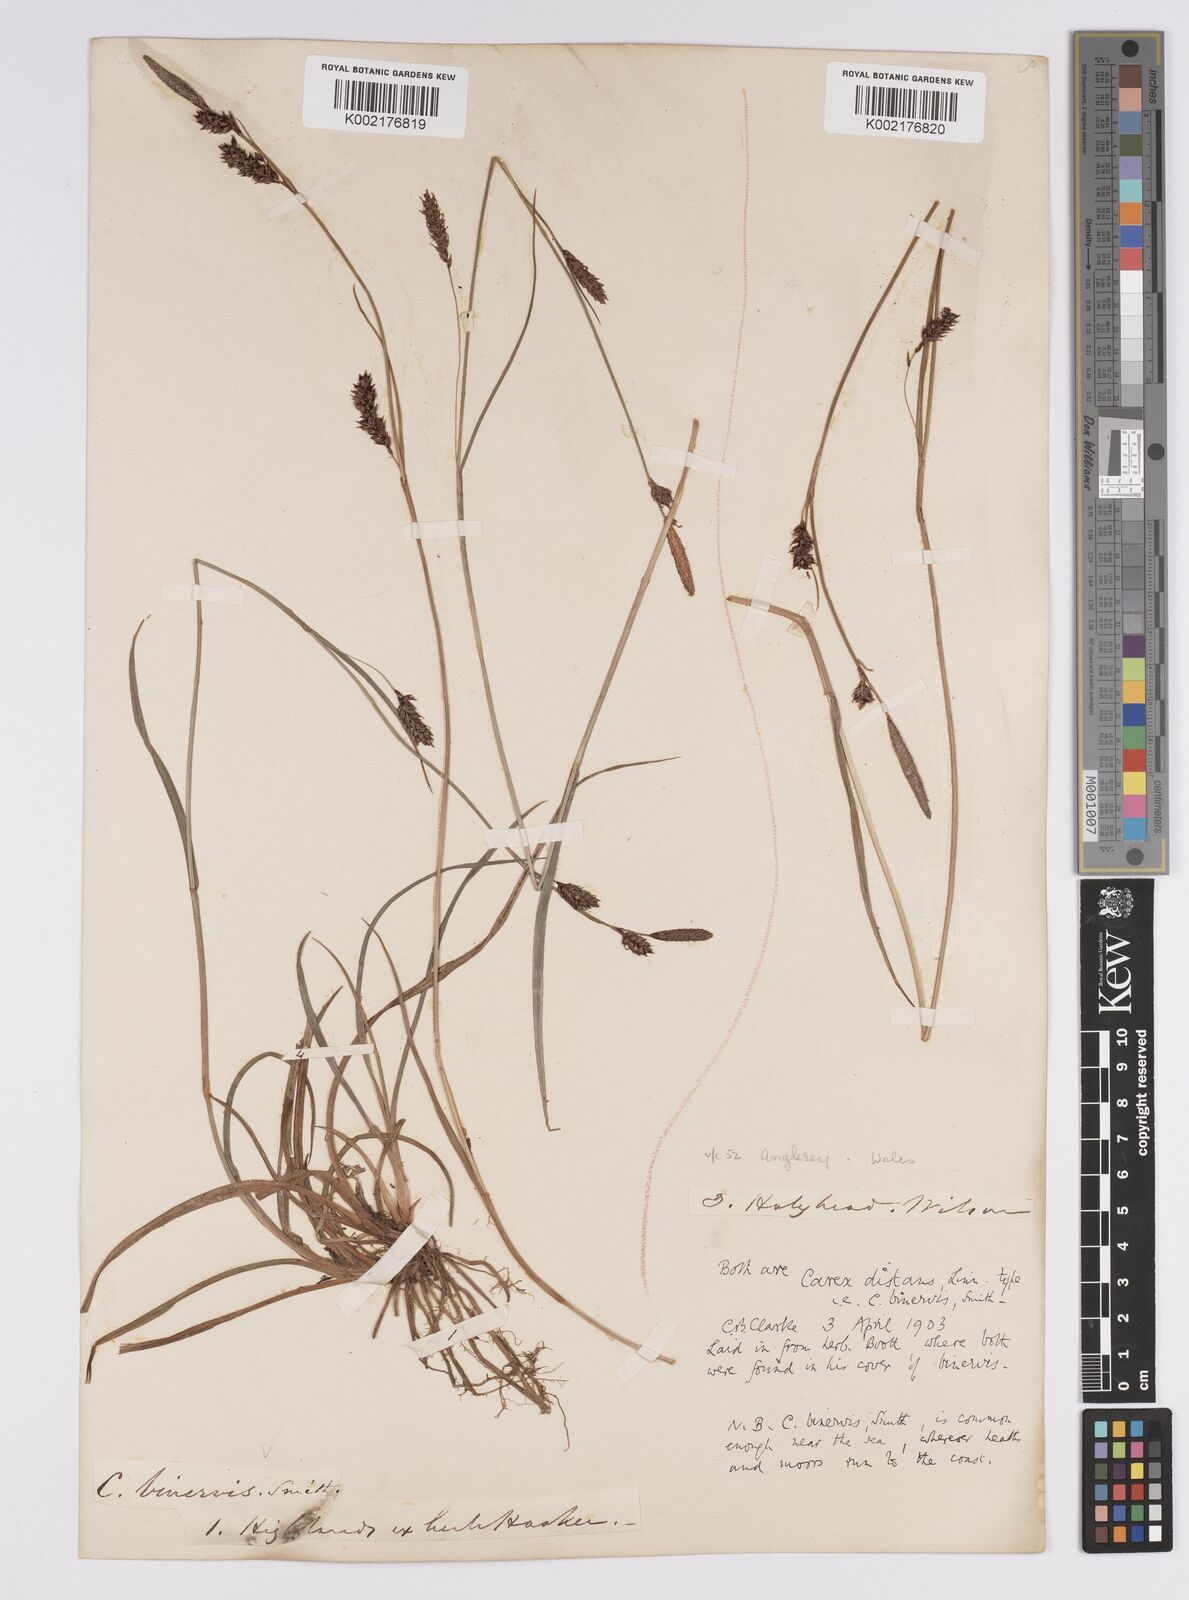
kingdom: Plantae
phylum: Tracheophyta
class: Liliopsida
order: Poales
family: Cyperaceae
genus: Carex
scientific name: Carex binervis
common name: Green-ribbed sedge
